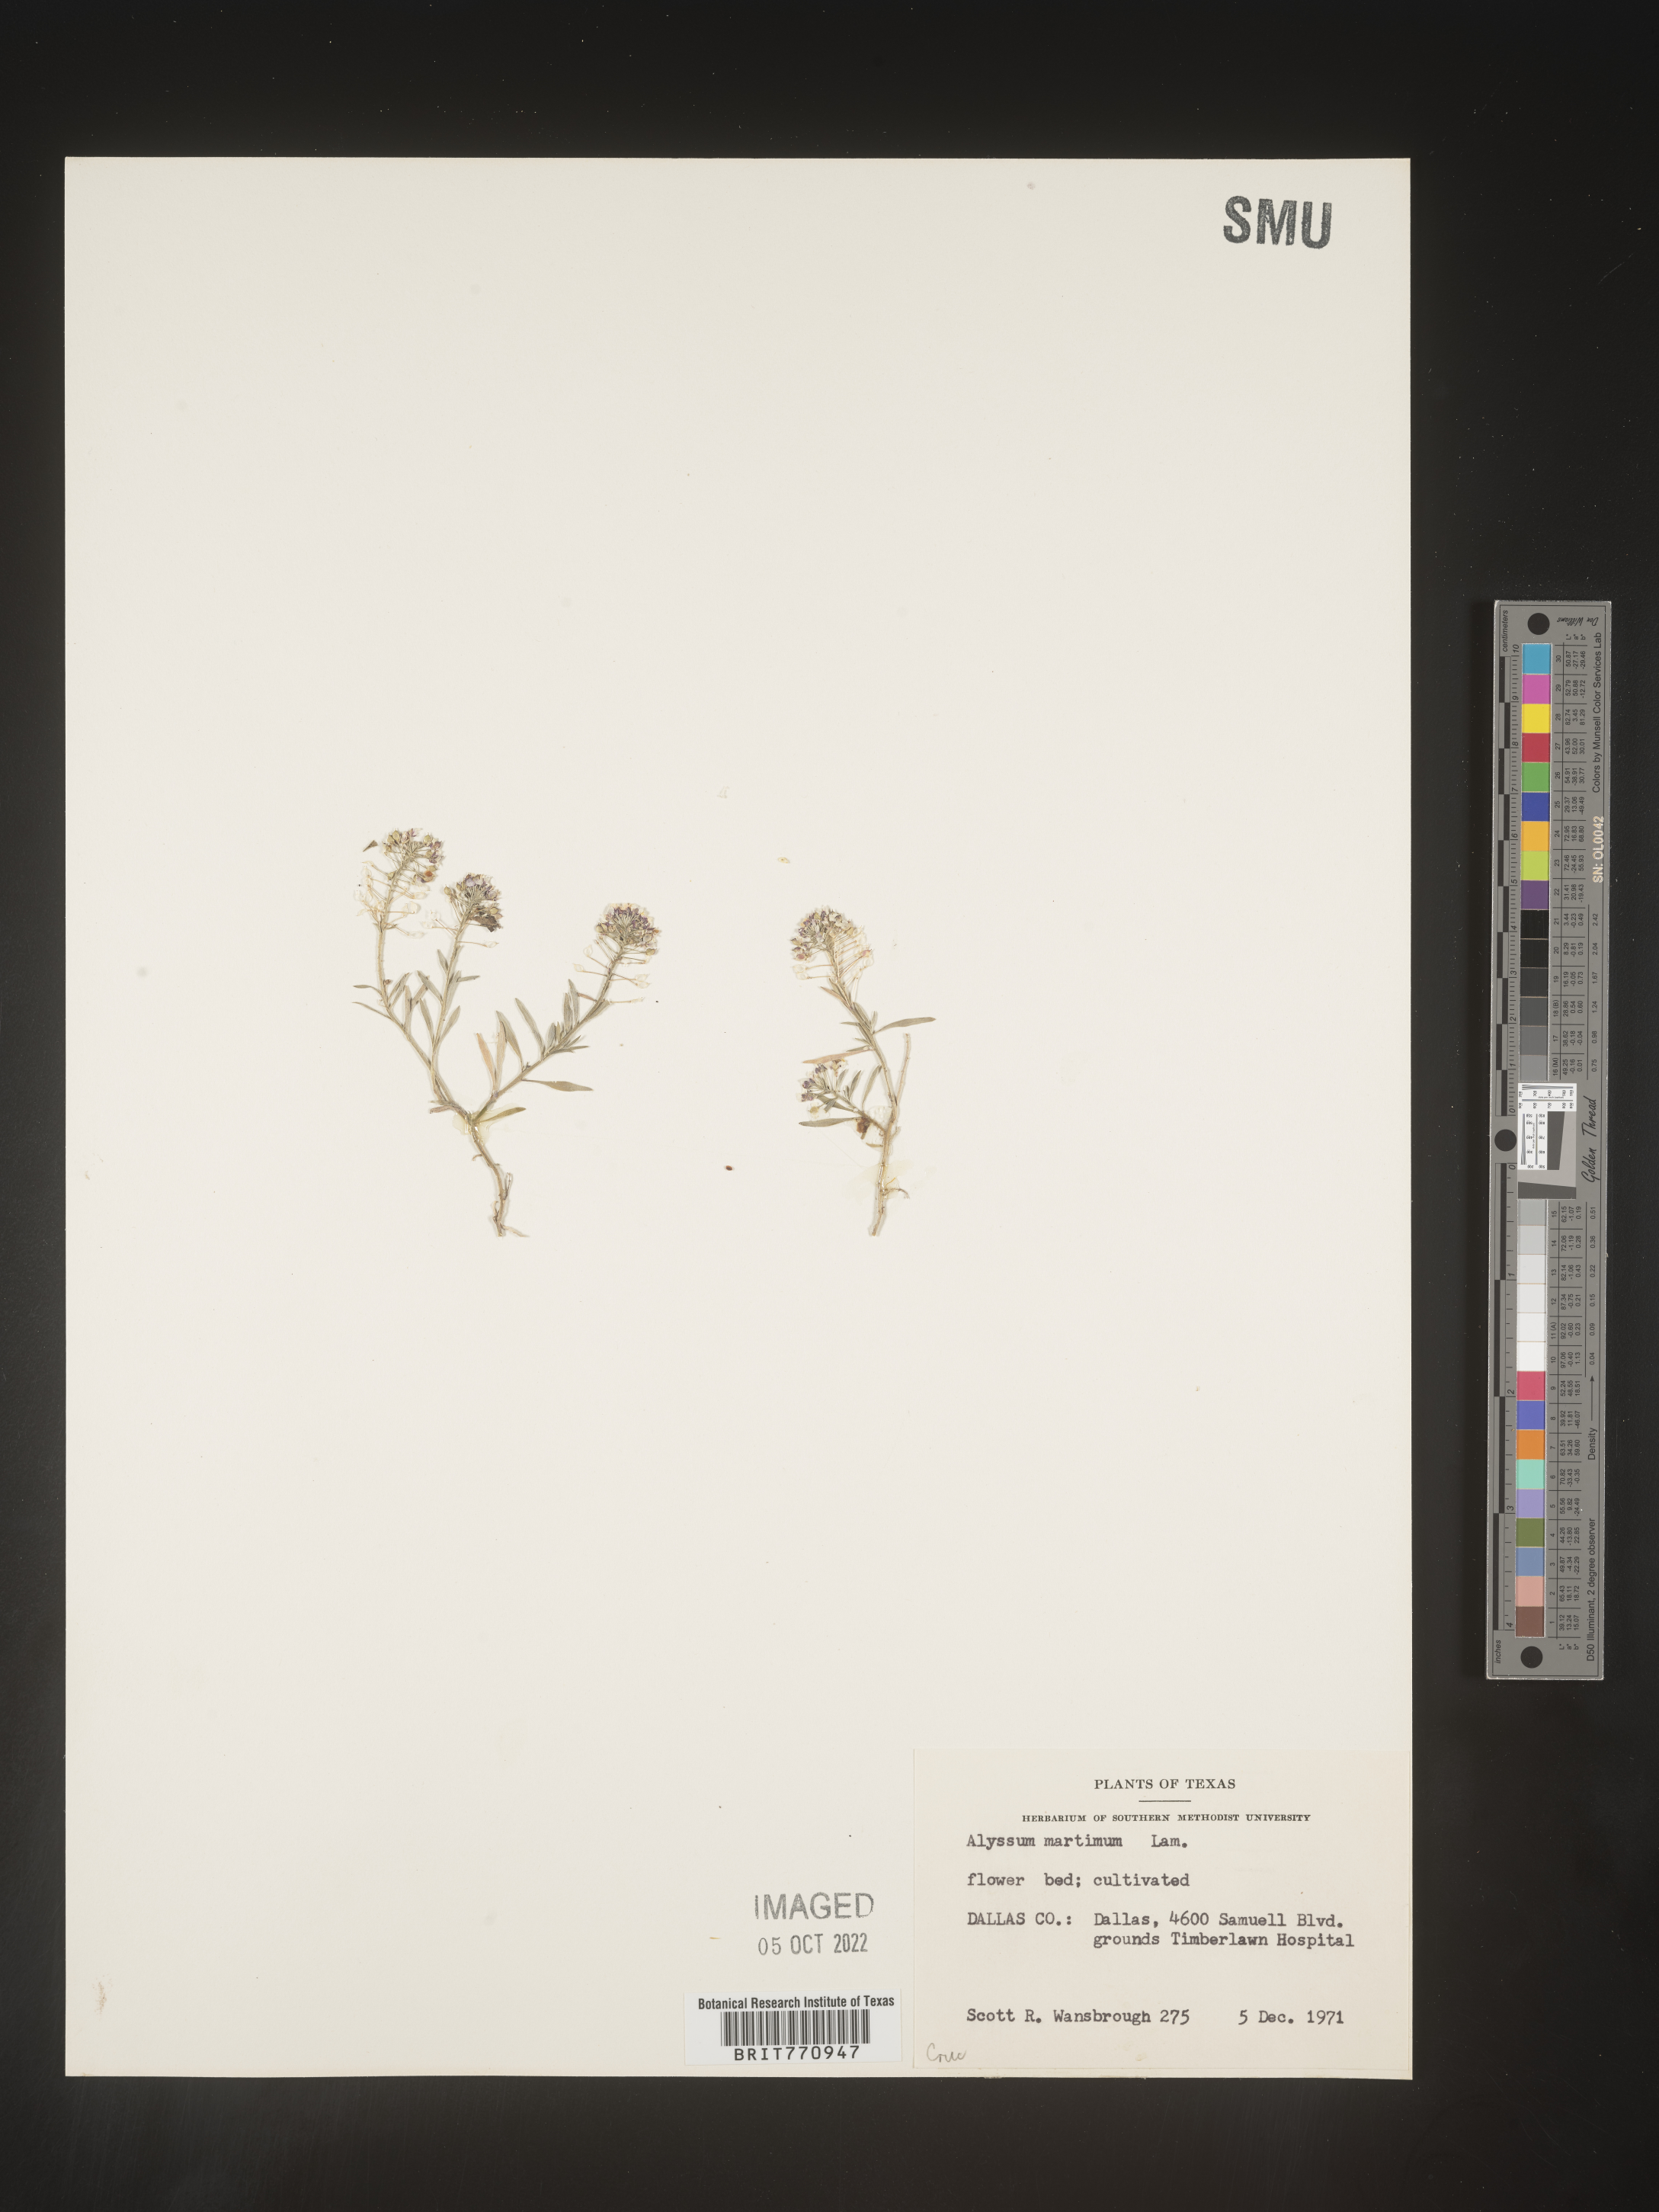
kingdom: Plantae
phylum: Tracheophyta
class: Magnoliopsida
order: Brassicales
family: Brassicaceae
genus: Alyssum
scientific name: Alyssum
